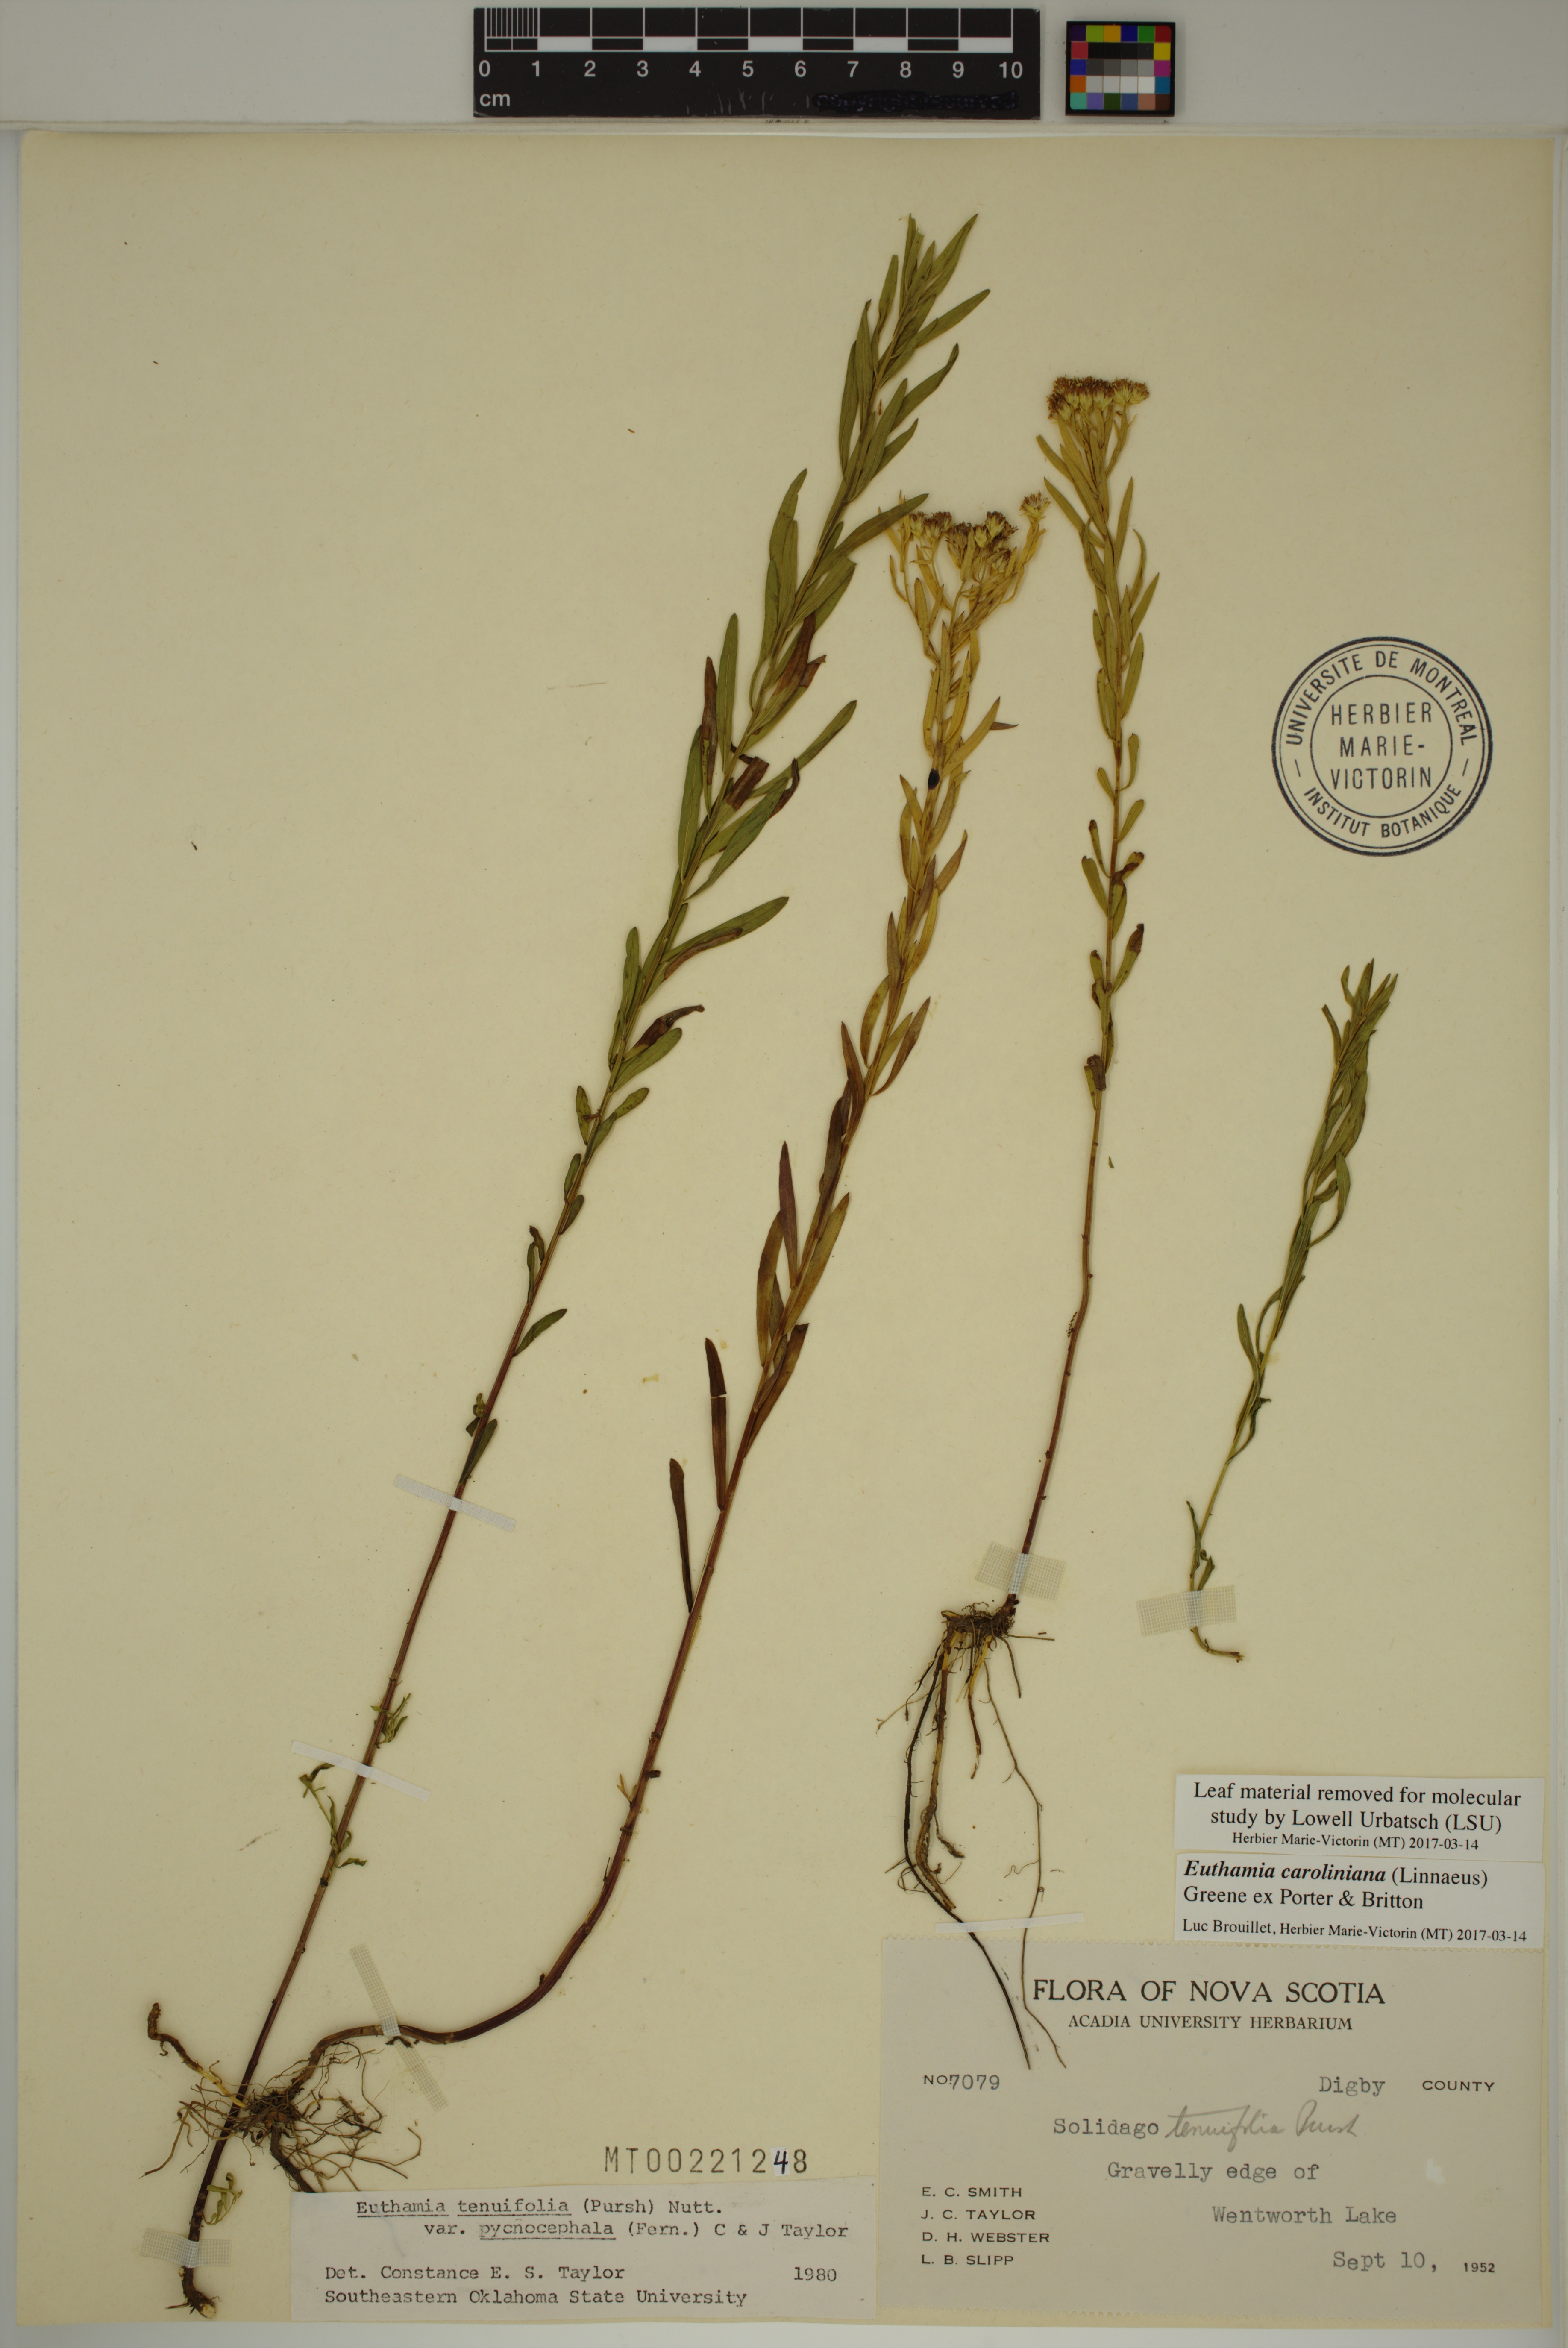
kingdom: Plantae
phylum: Tracheophyta
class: Magnoliopsida
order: Asterales
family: Asteraceae
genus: Euthamia
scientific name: Euthamia caroliniana
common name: Coastal plain goldentop
